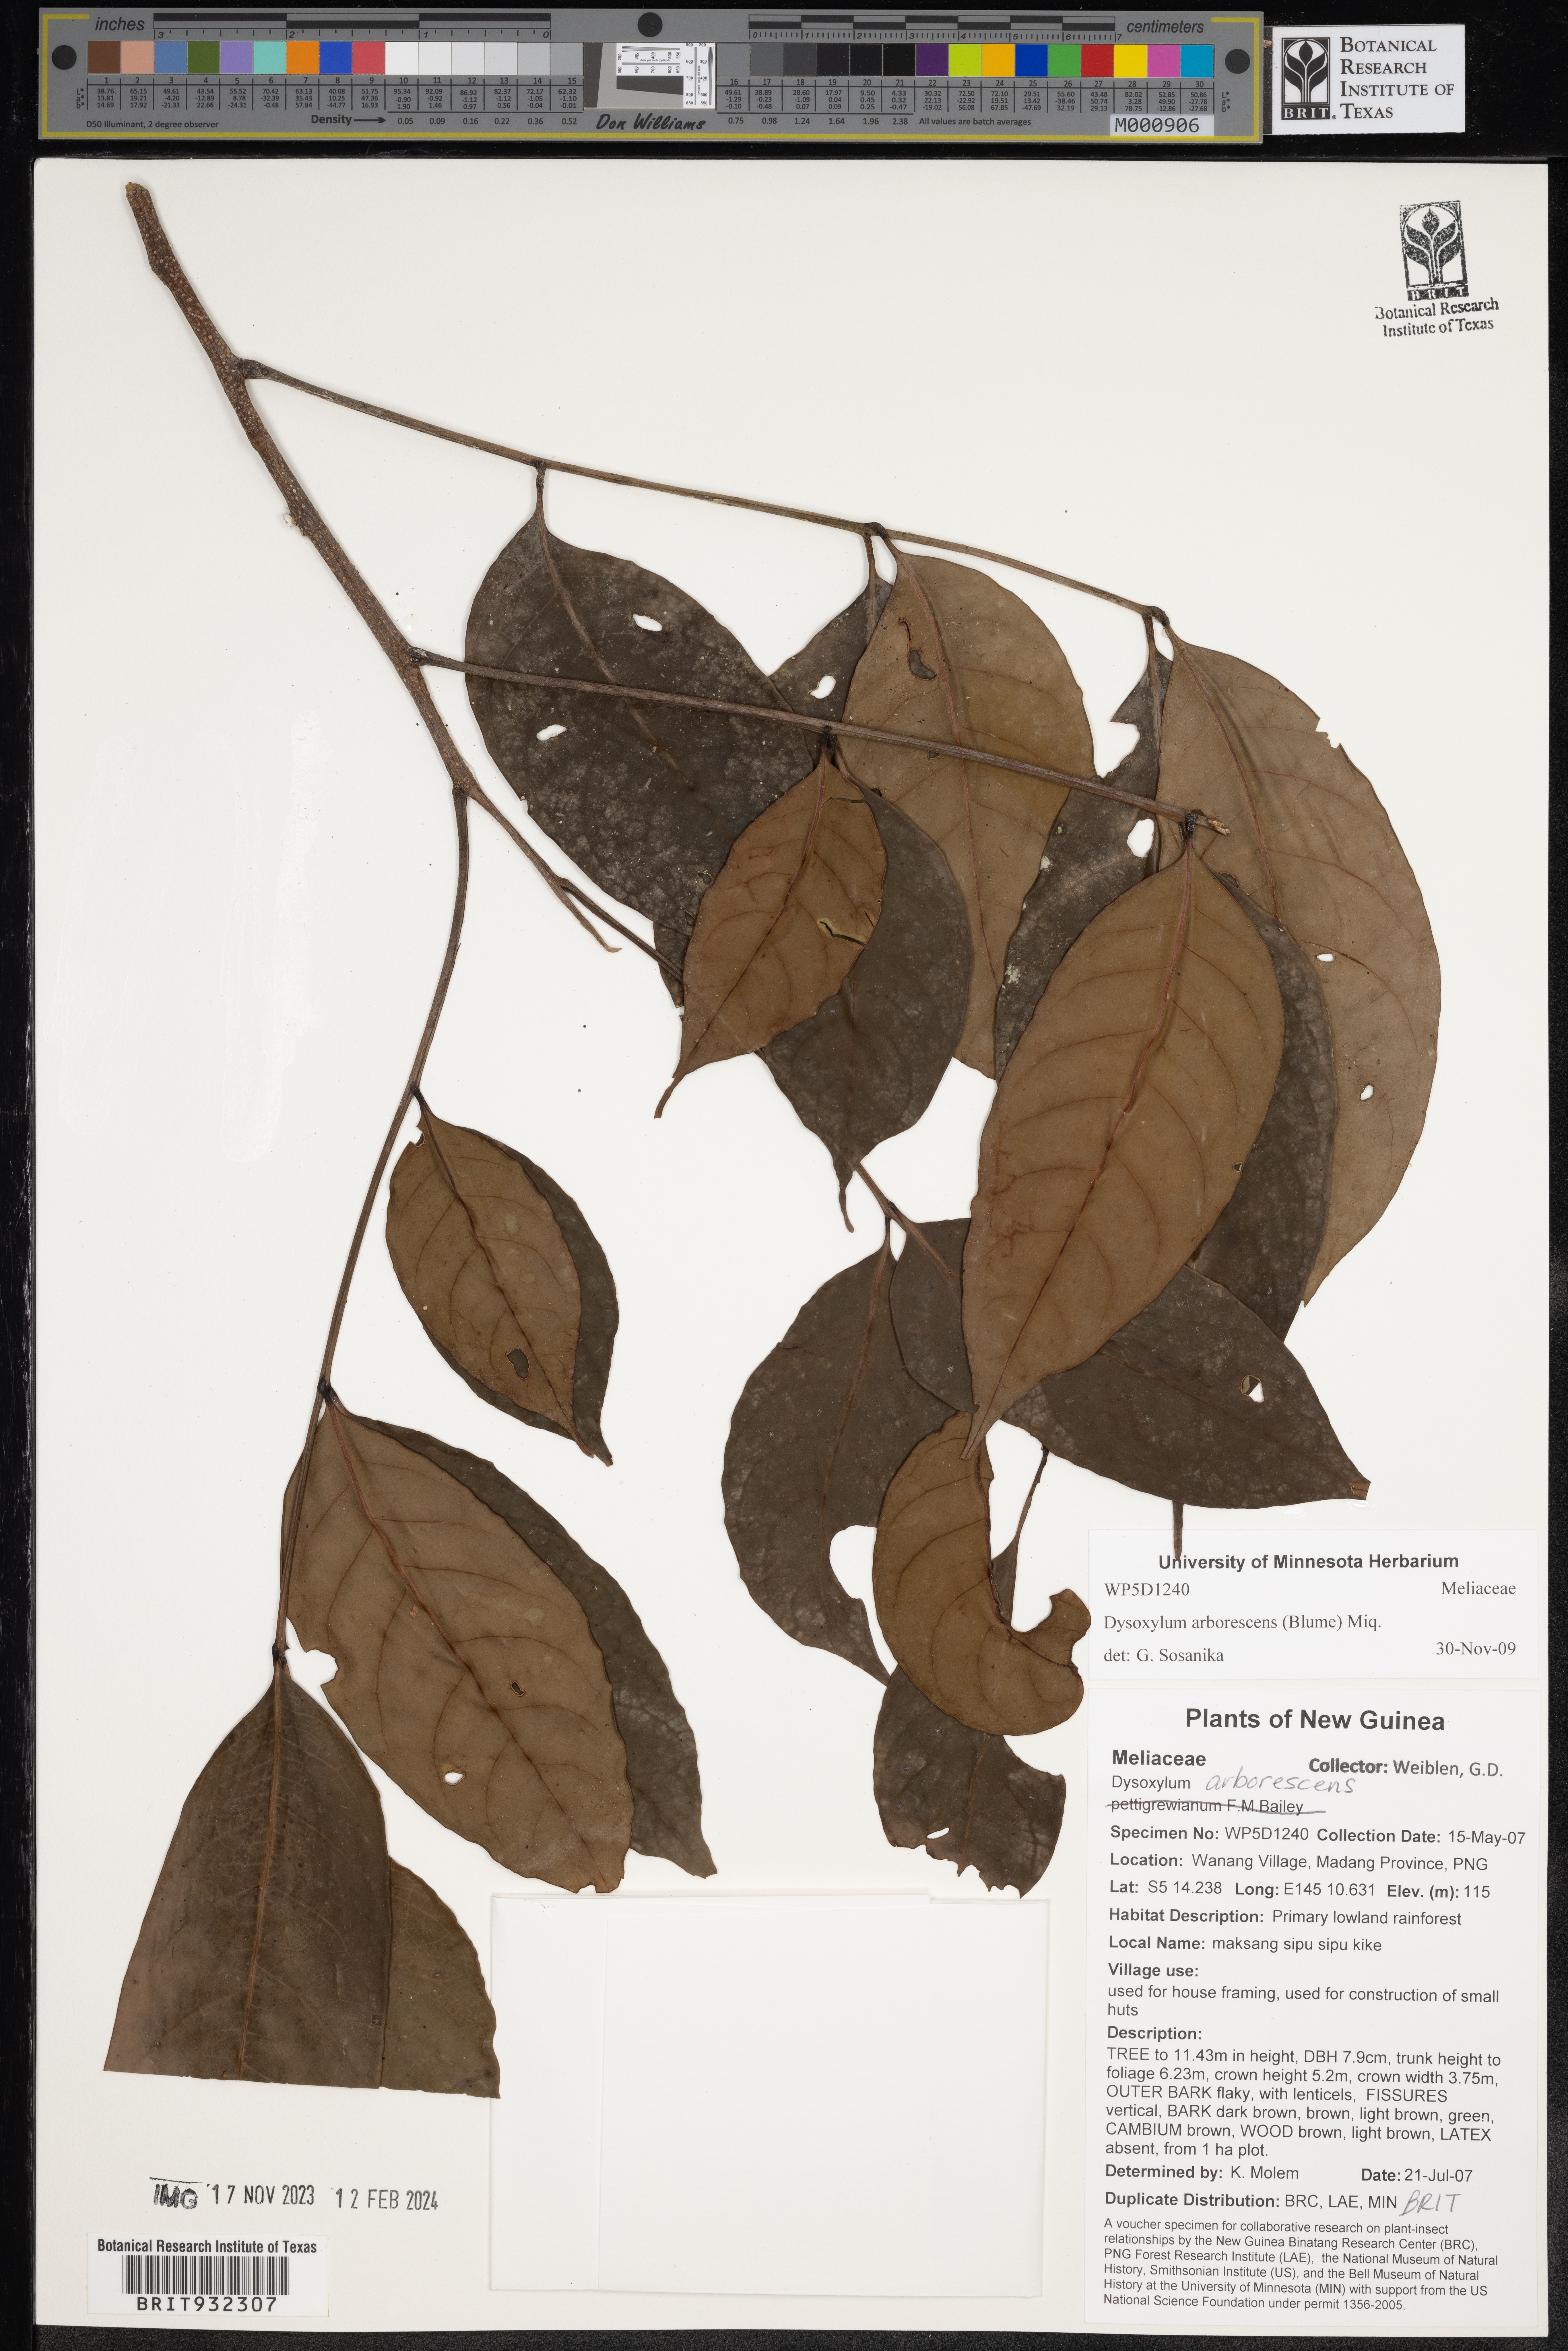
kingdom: Plantae
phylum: Tracheophyta
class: Magnoliopsida
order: Sapindales
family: Meliaceae
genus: Dysoxylum
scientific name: Dysoxylum
